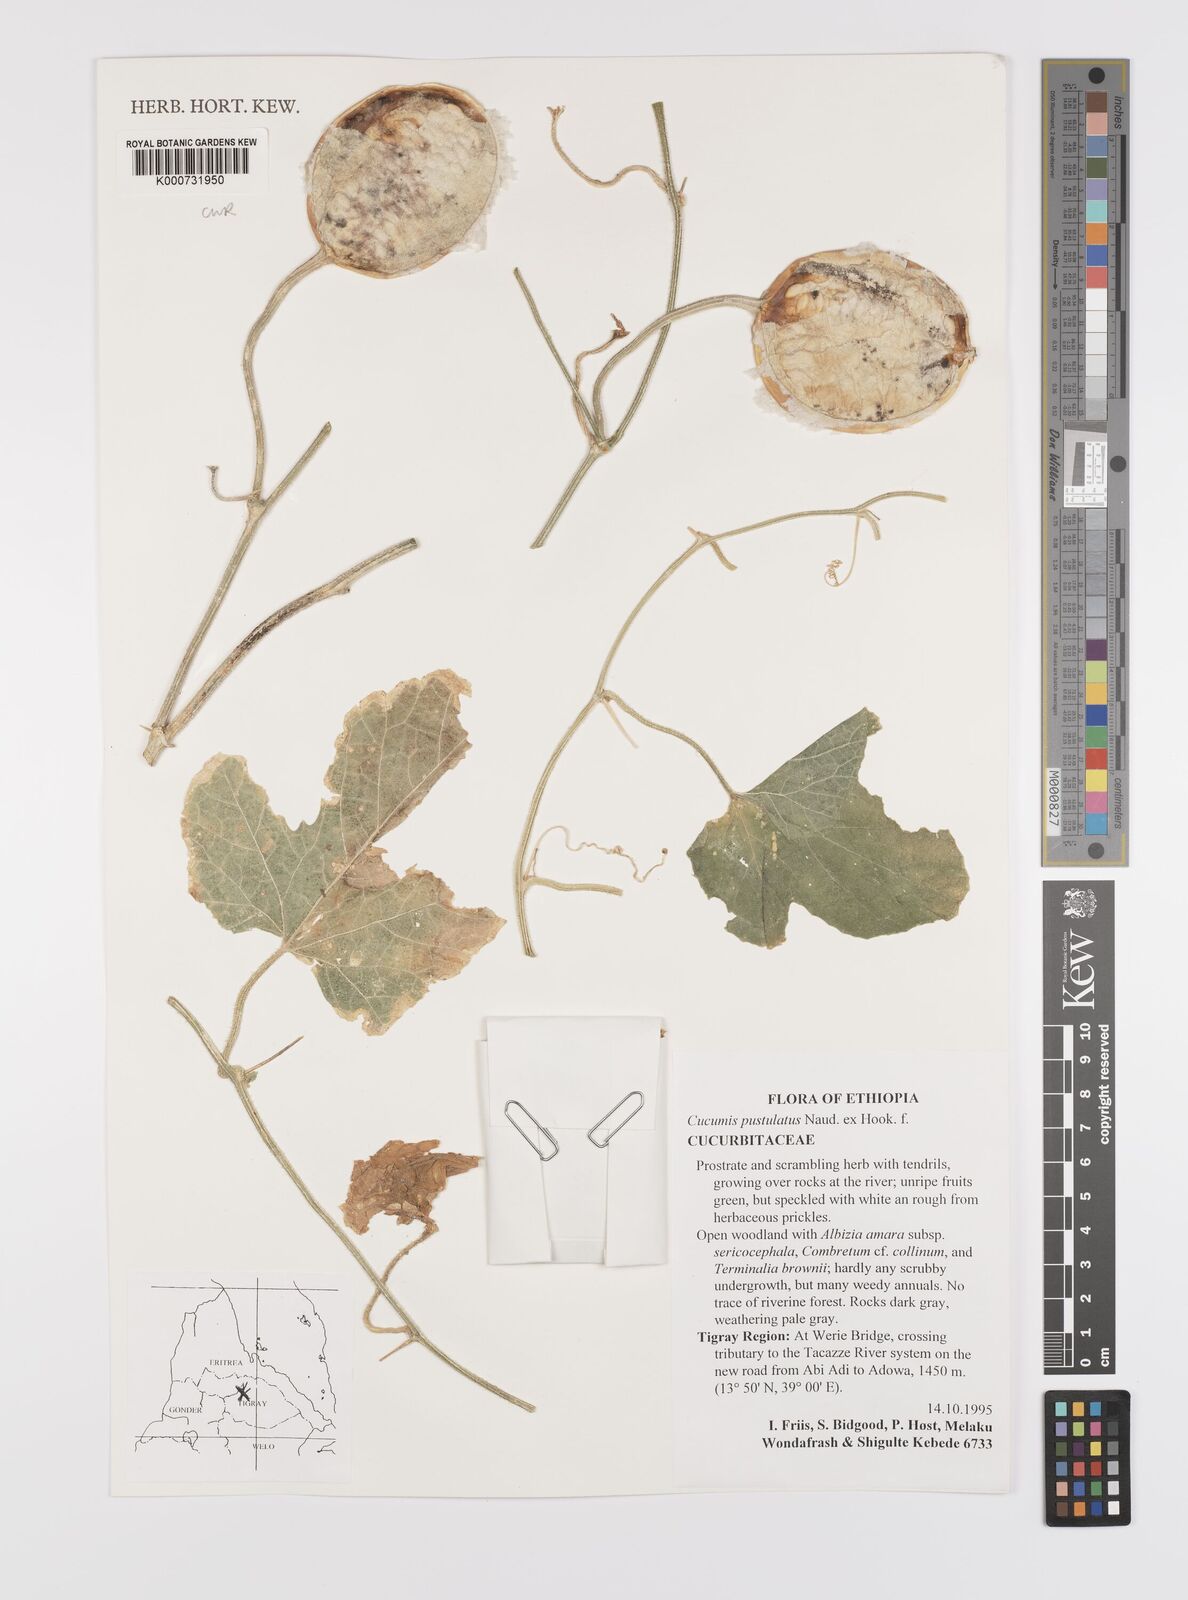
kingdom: Plantae
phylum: Tracheophyta
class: Magnoliopsida
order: Cucurbitales
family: Cucurbitaceae
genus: Cucumis
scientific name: Cucumis pustulatus
